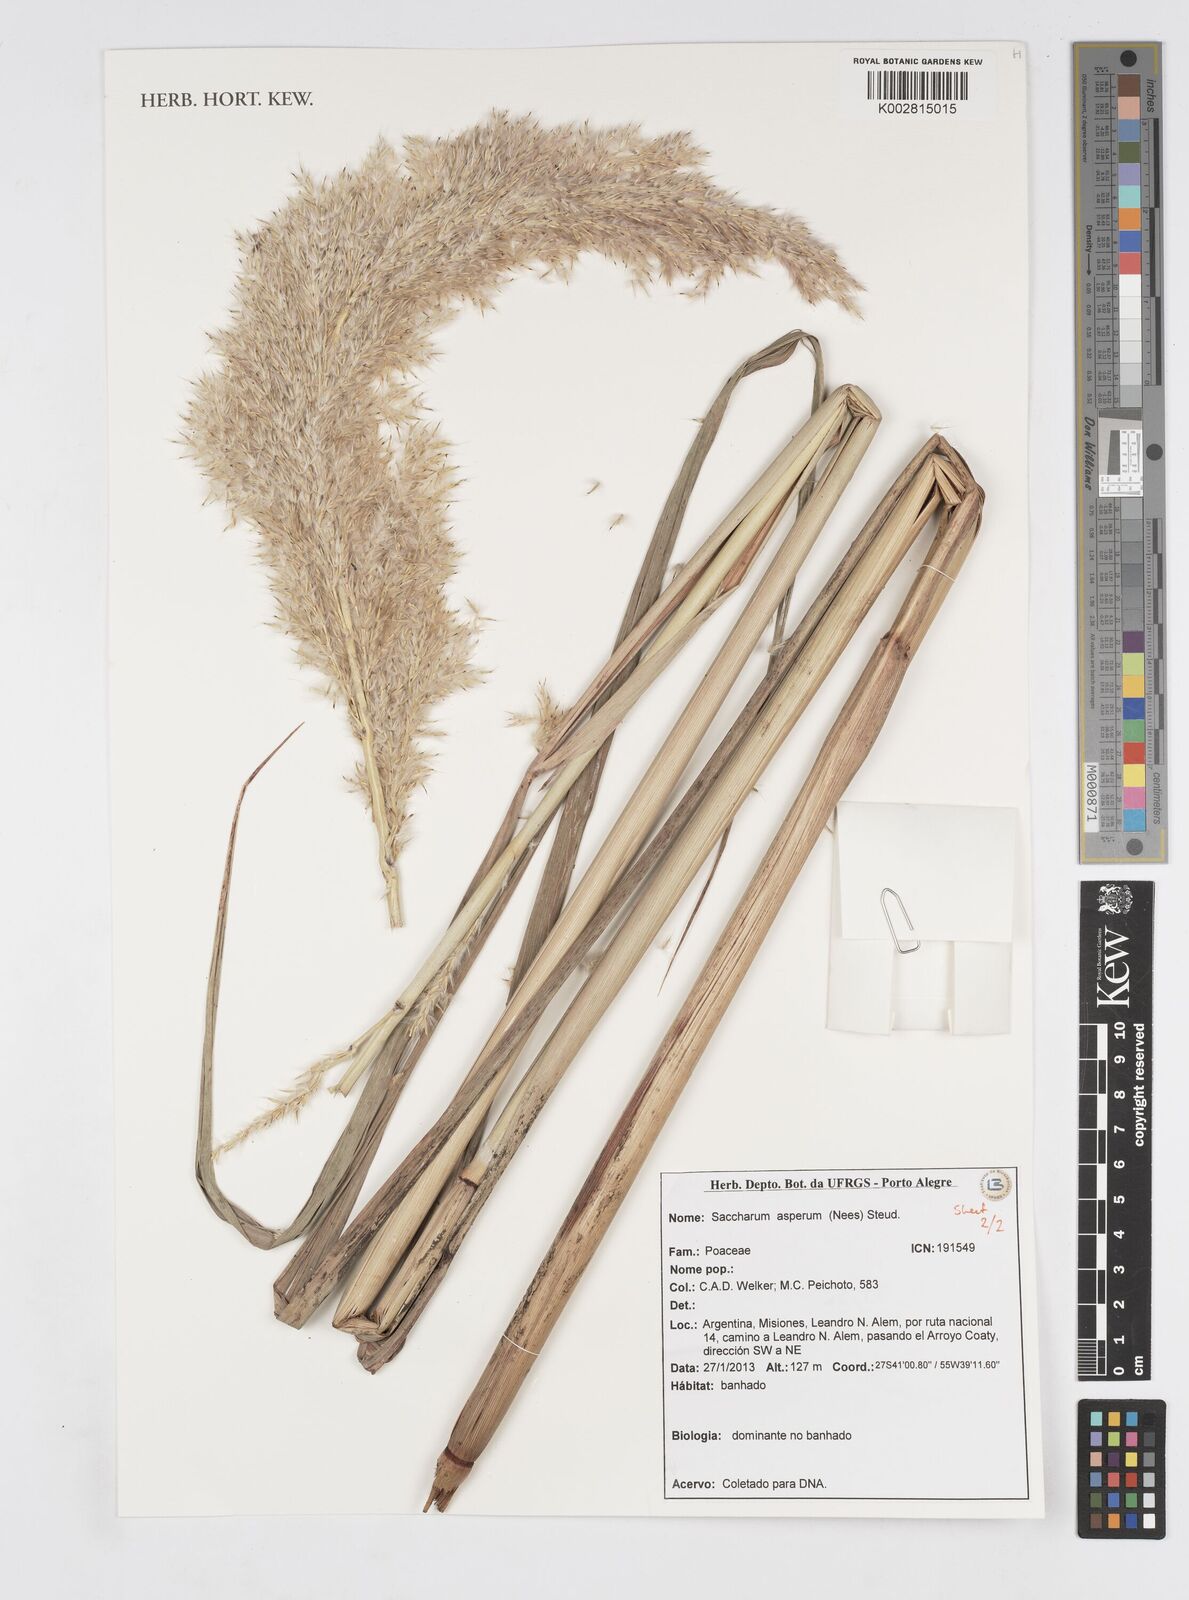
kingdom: Plantae
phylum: Tracheophyta
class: Liliopsida
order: Poales
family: Poaceae
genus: Erianthus
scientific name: Erianthus asper
